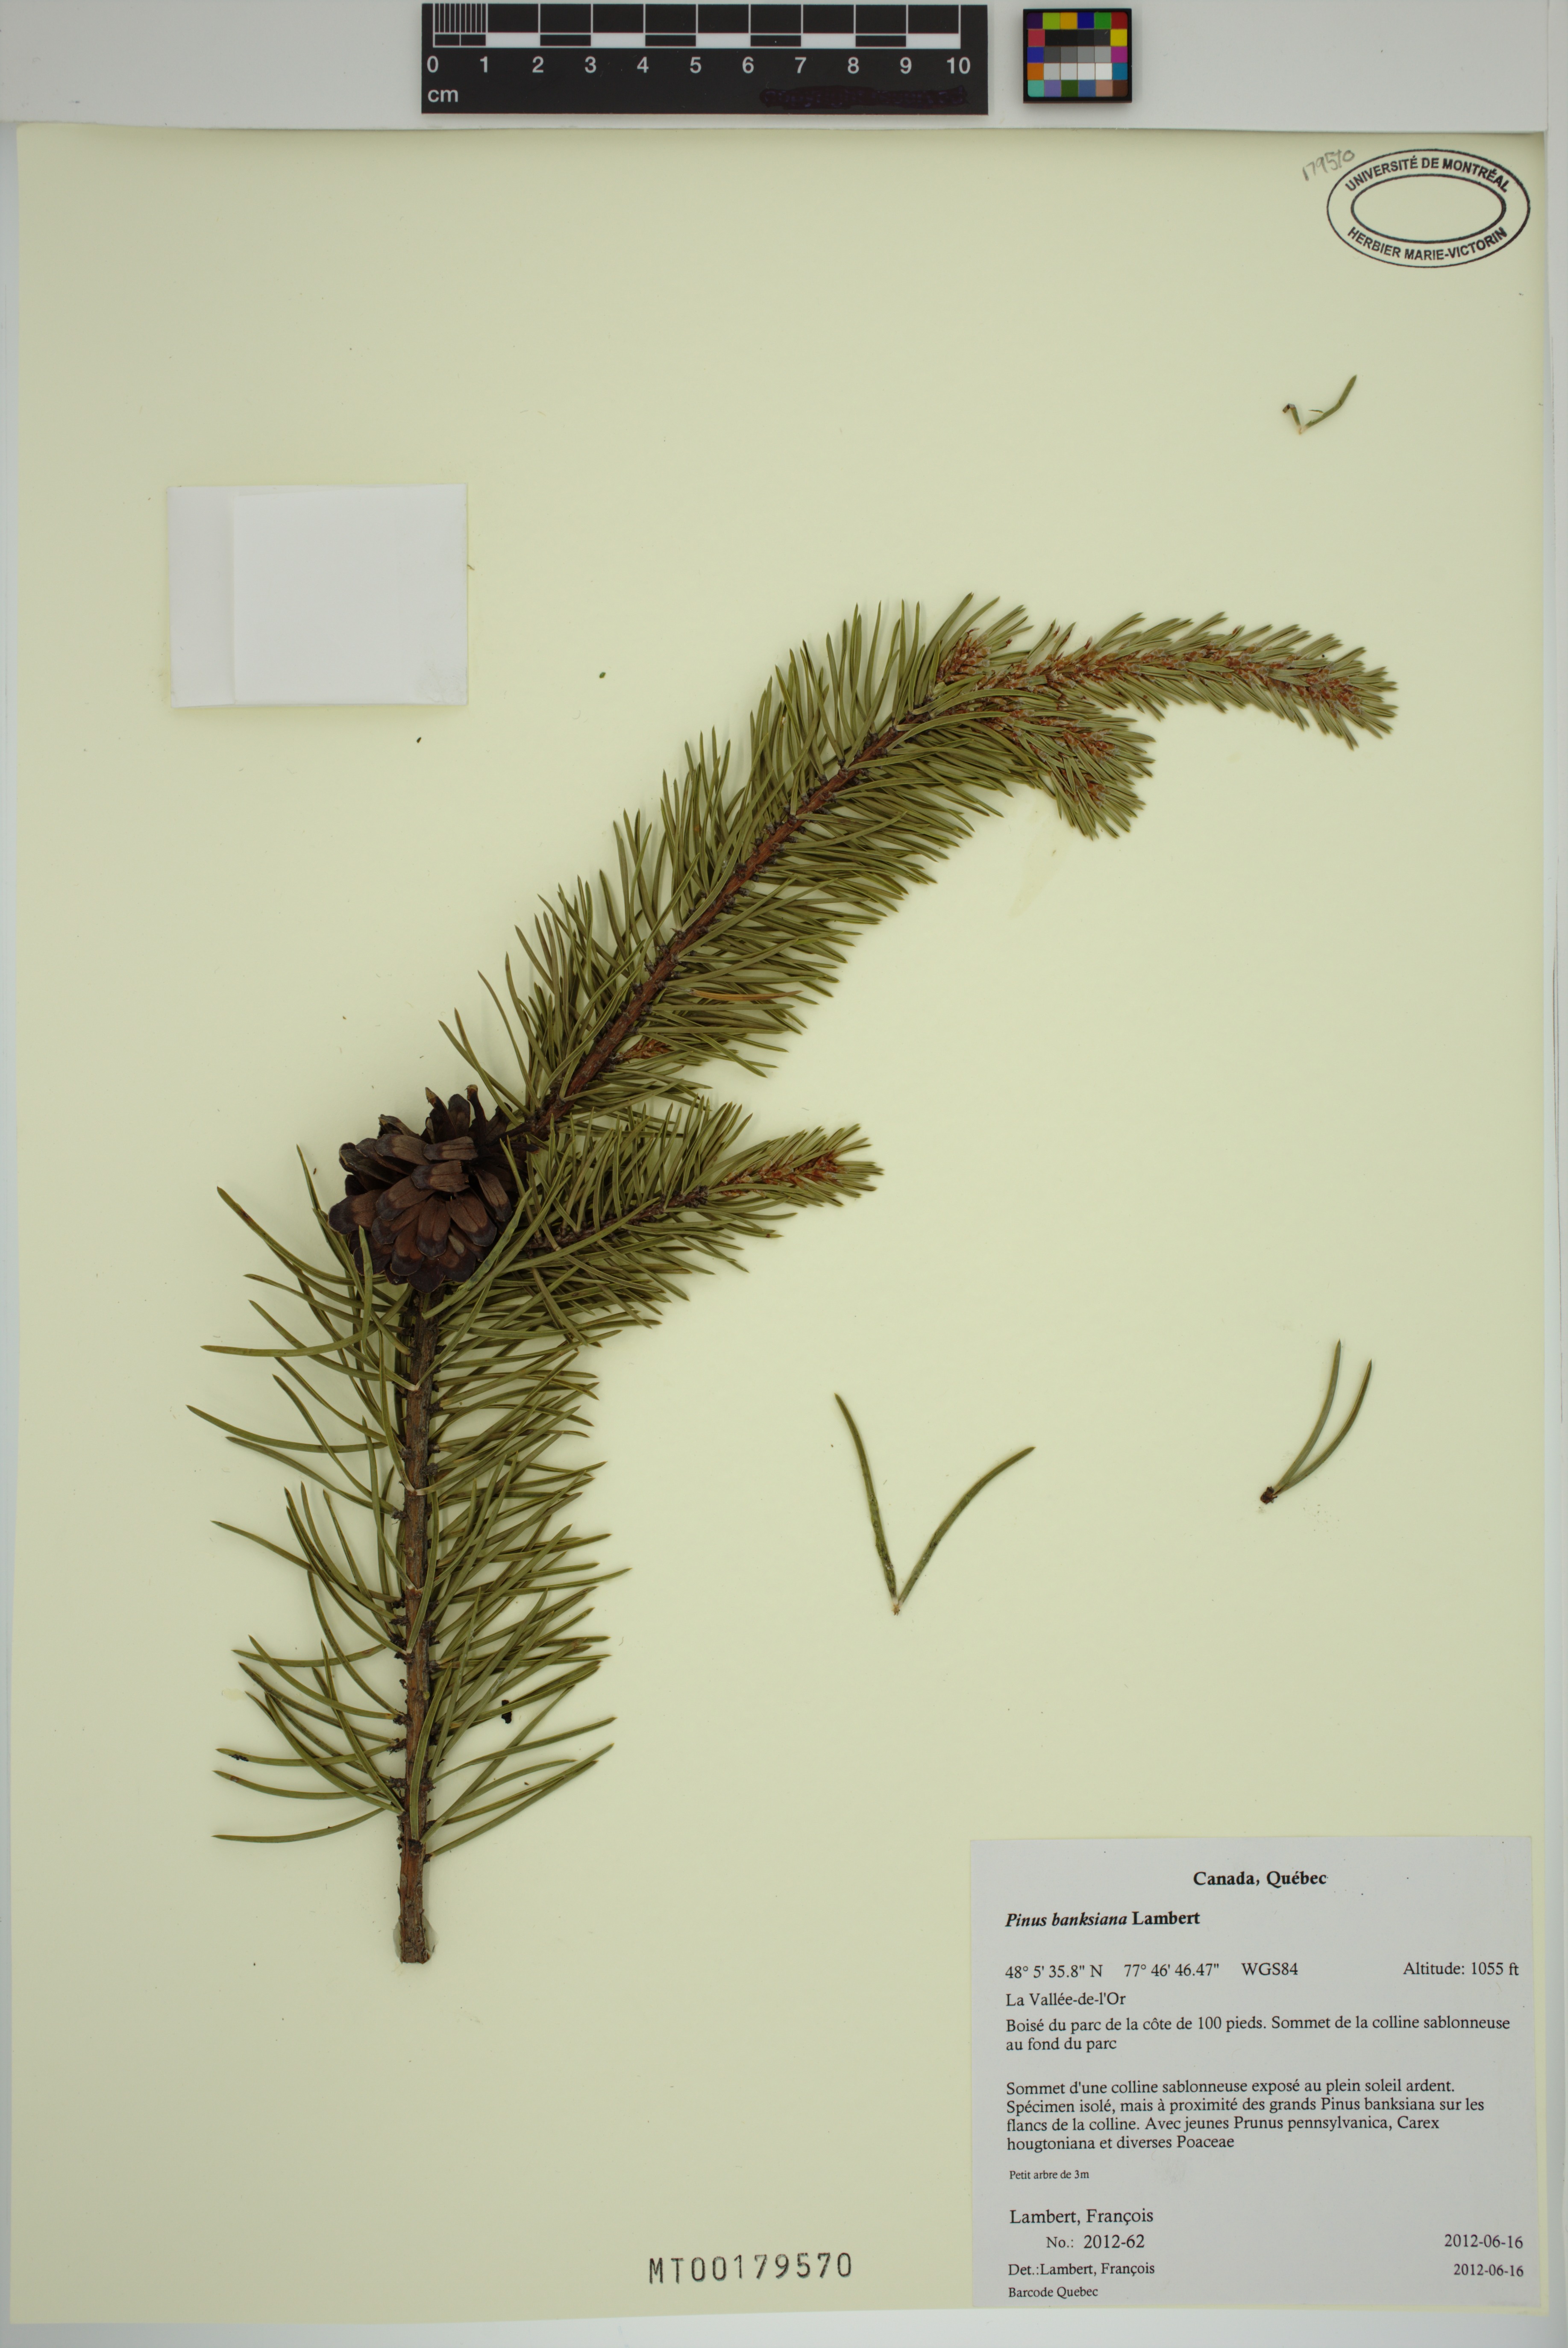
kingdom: Plantae
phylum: Tracheophyta
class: Pinopsida
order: Pinales
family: Pinaceae
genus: Pinus
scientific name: Pinus banksiana
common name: Jack pine
